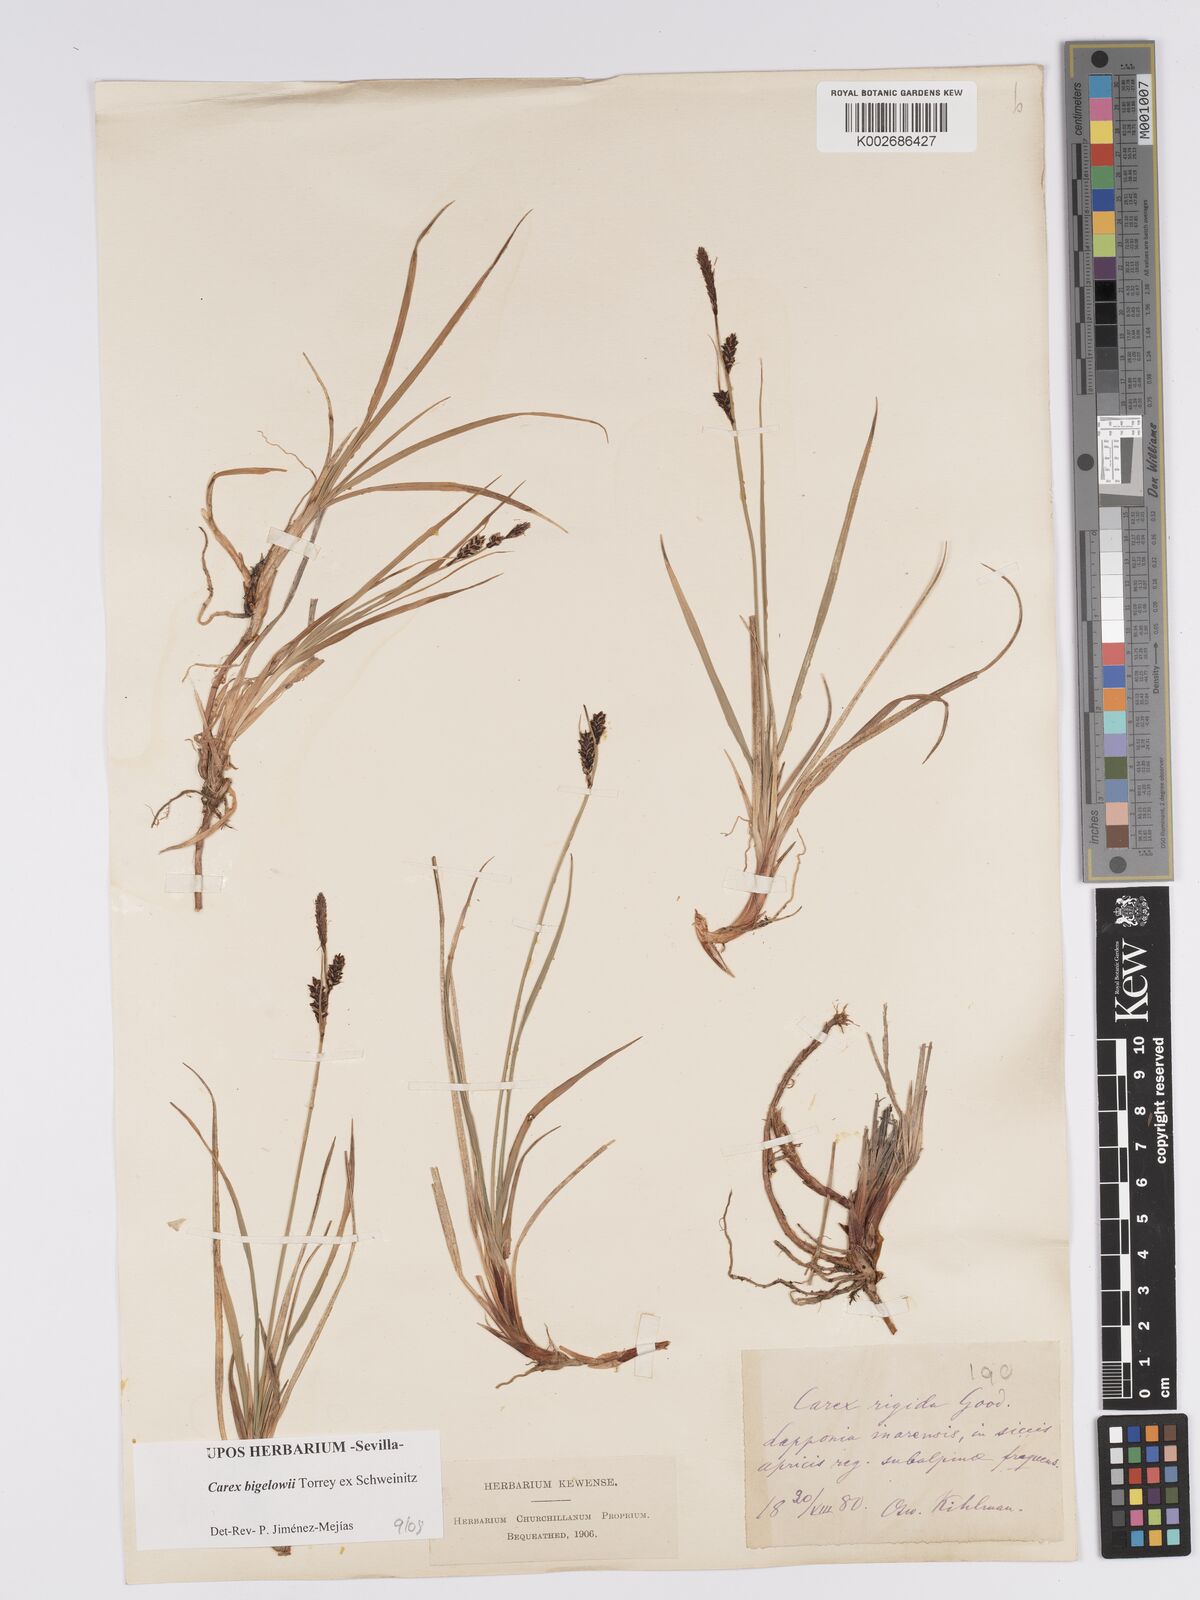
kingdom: Plantae
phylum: Tracheophyta
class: Liliopsida
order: Poales
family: Cyperaceae
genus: Carex
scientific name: Carex bigelowii
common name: Stiff sedge
